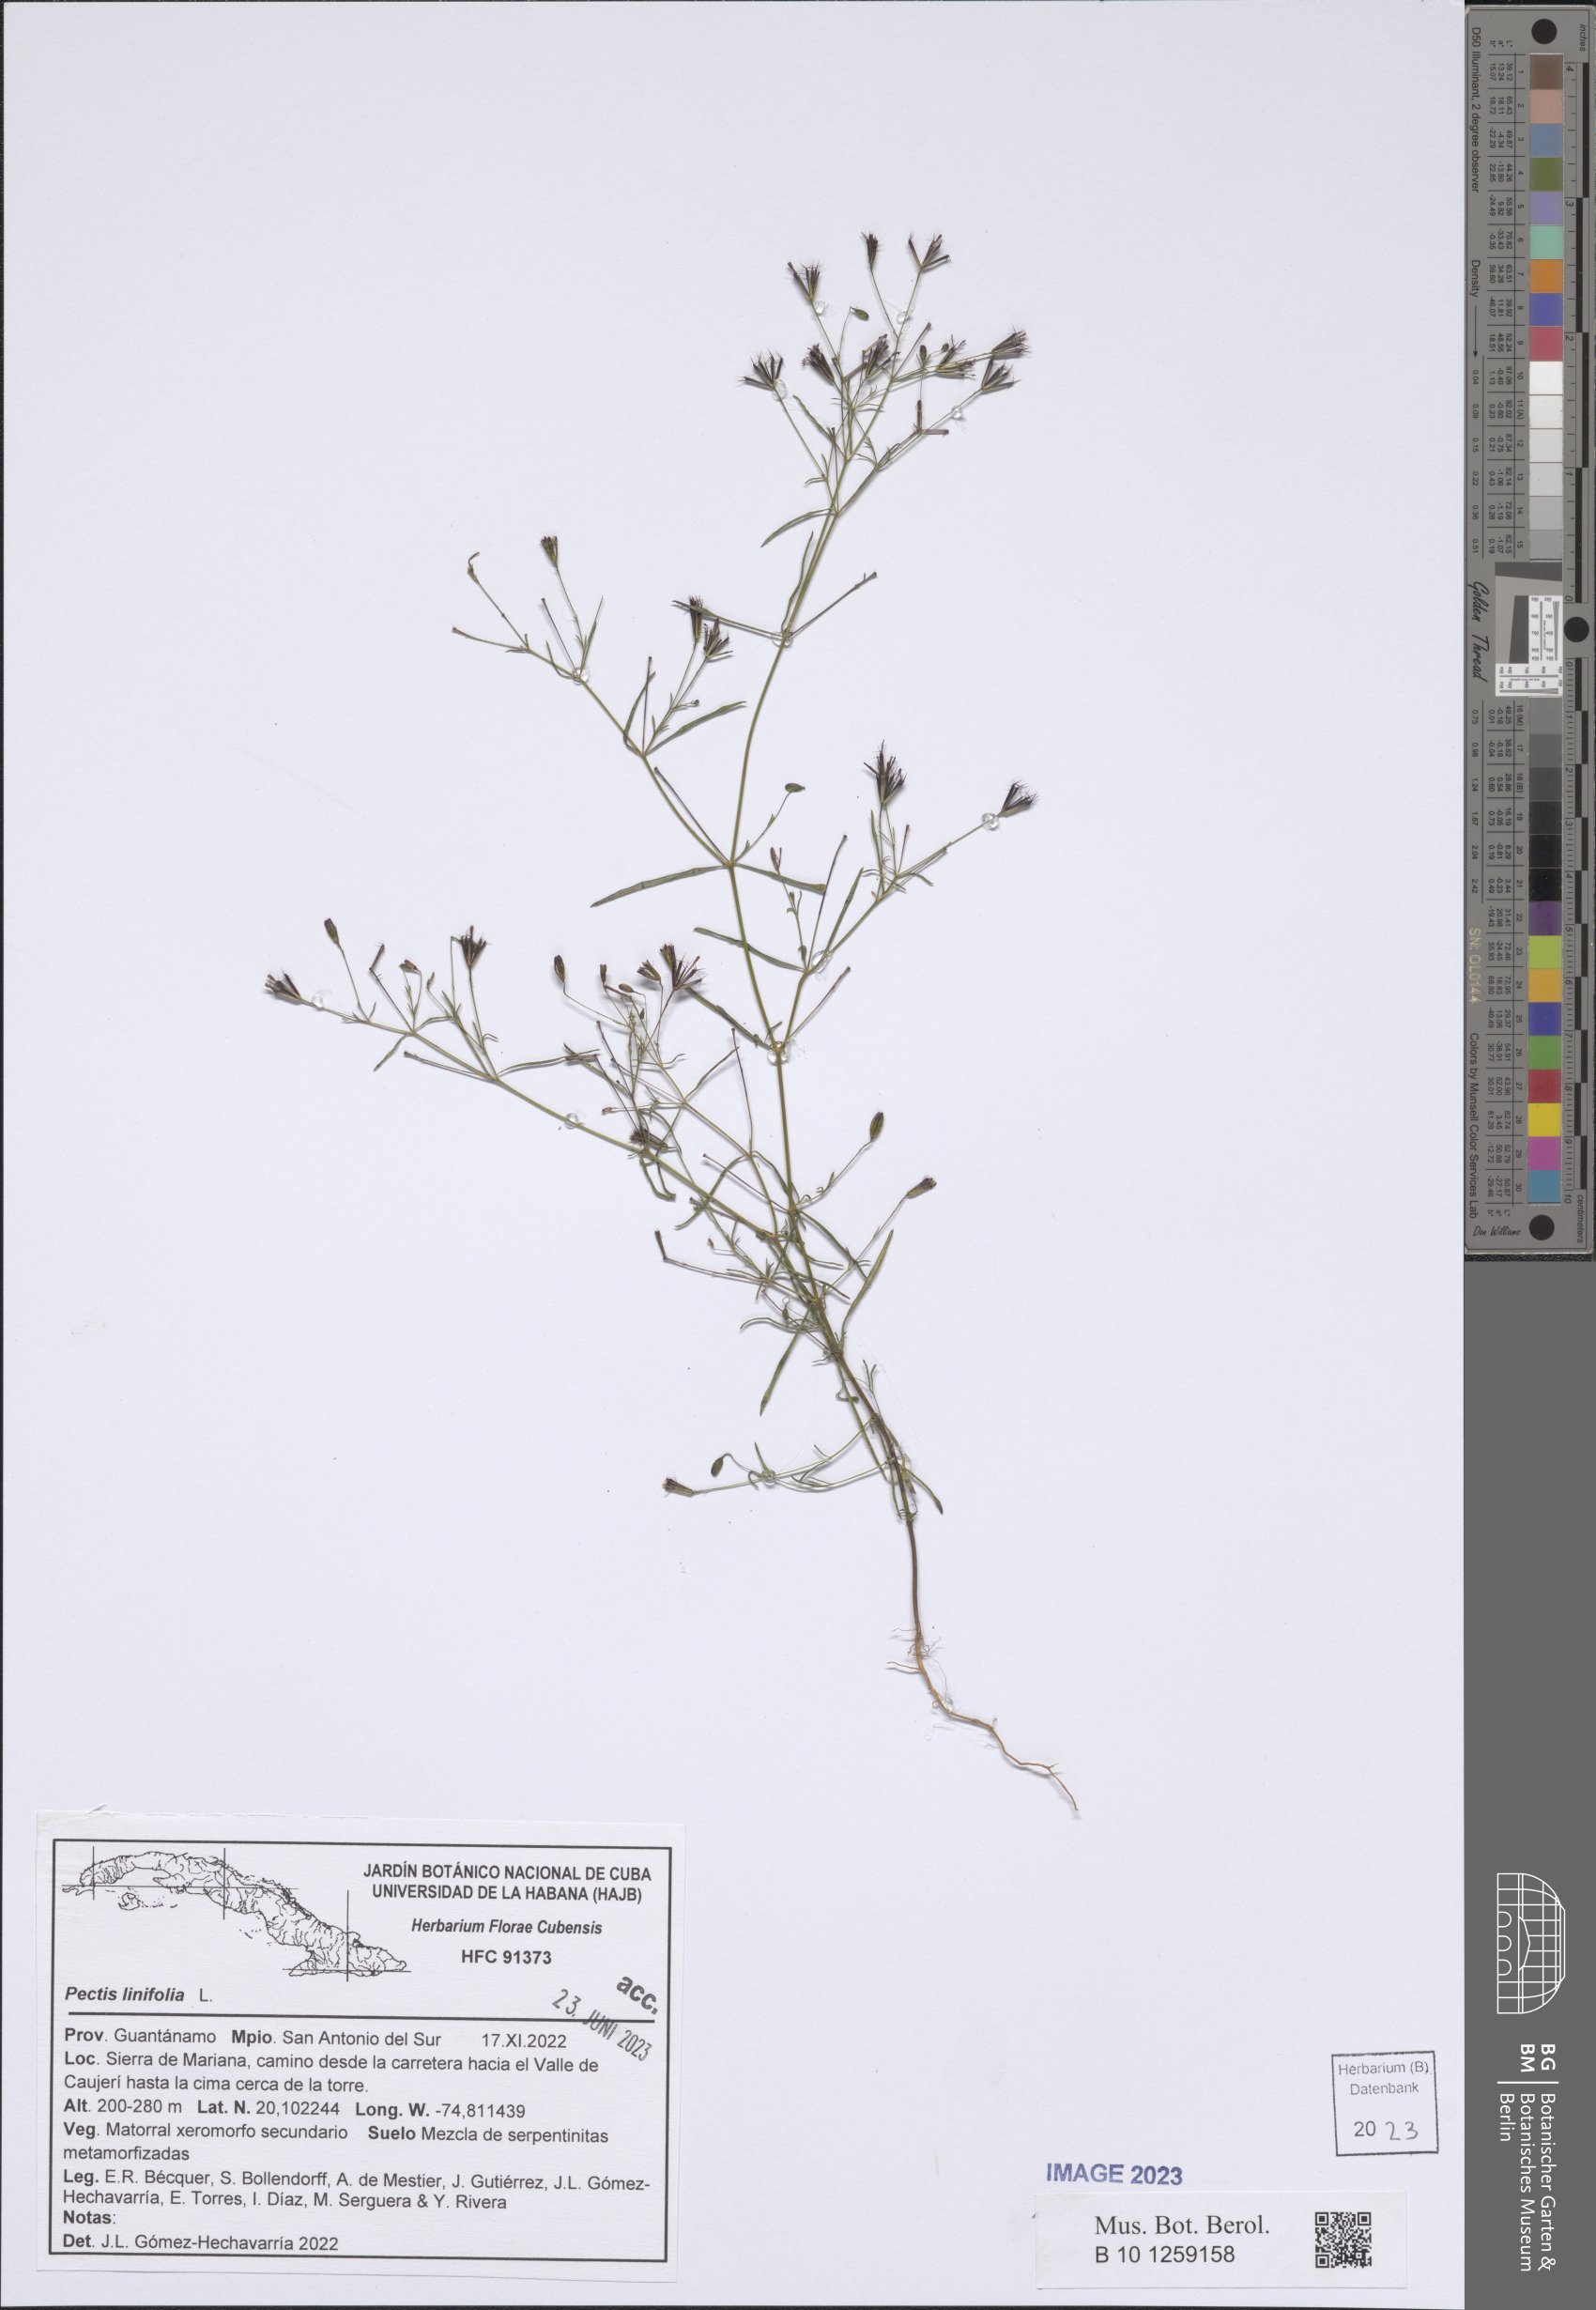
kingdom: Plantae
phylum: Tracheophyta
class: Magnoliopsida
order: Asterales
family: Asteraceae
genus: Pectis
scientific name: Pectis linifolia
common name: Romero macho
